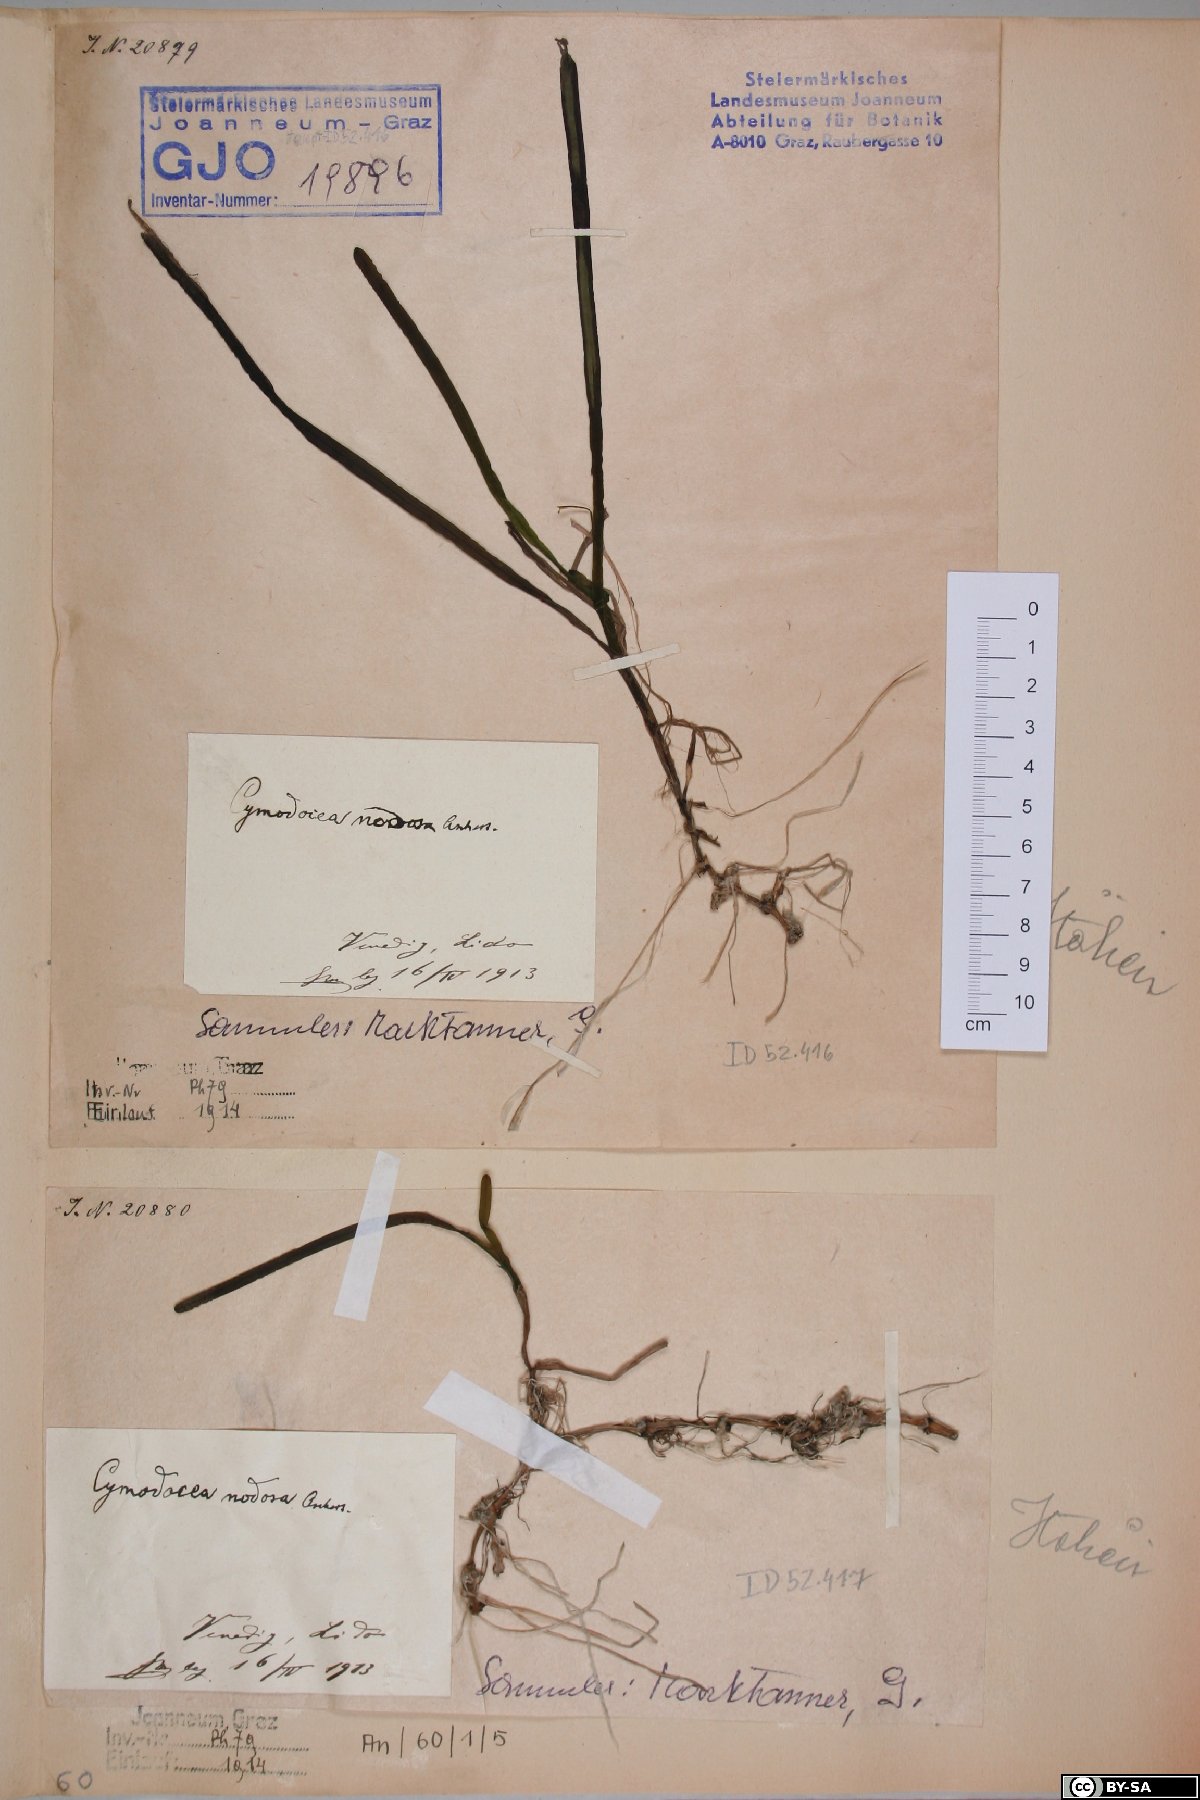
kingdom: Plantae
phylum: Tracheophyta
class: Liliopsida
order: Alismatales
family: Cymodoceaceae
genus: Cymodocea
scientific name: Cymodocea nodosa
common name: Slender seagrass
